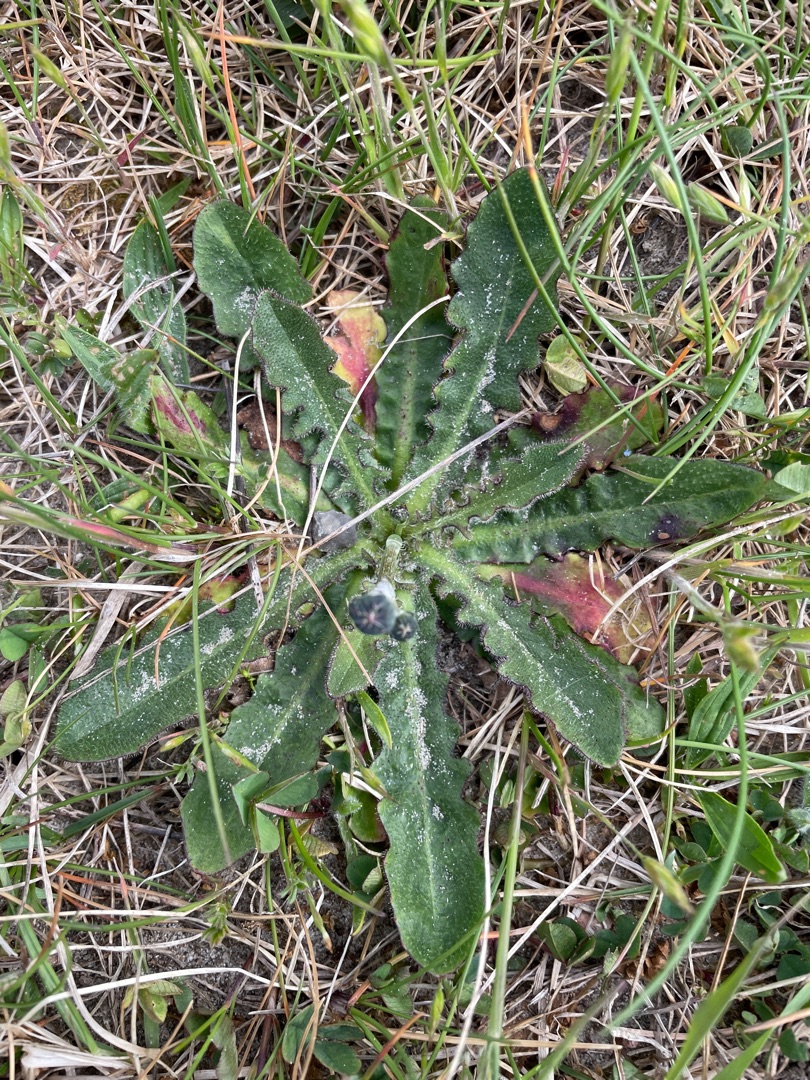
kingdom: Plantae
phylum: Tracheophyta
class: Magnoliopsida
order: Asterales
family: Asteraceae
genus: Hypochaeris
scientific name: Hypochaeris radicata
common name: Almindelig kongepen
